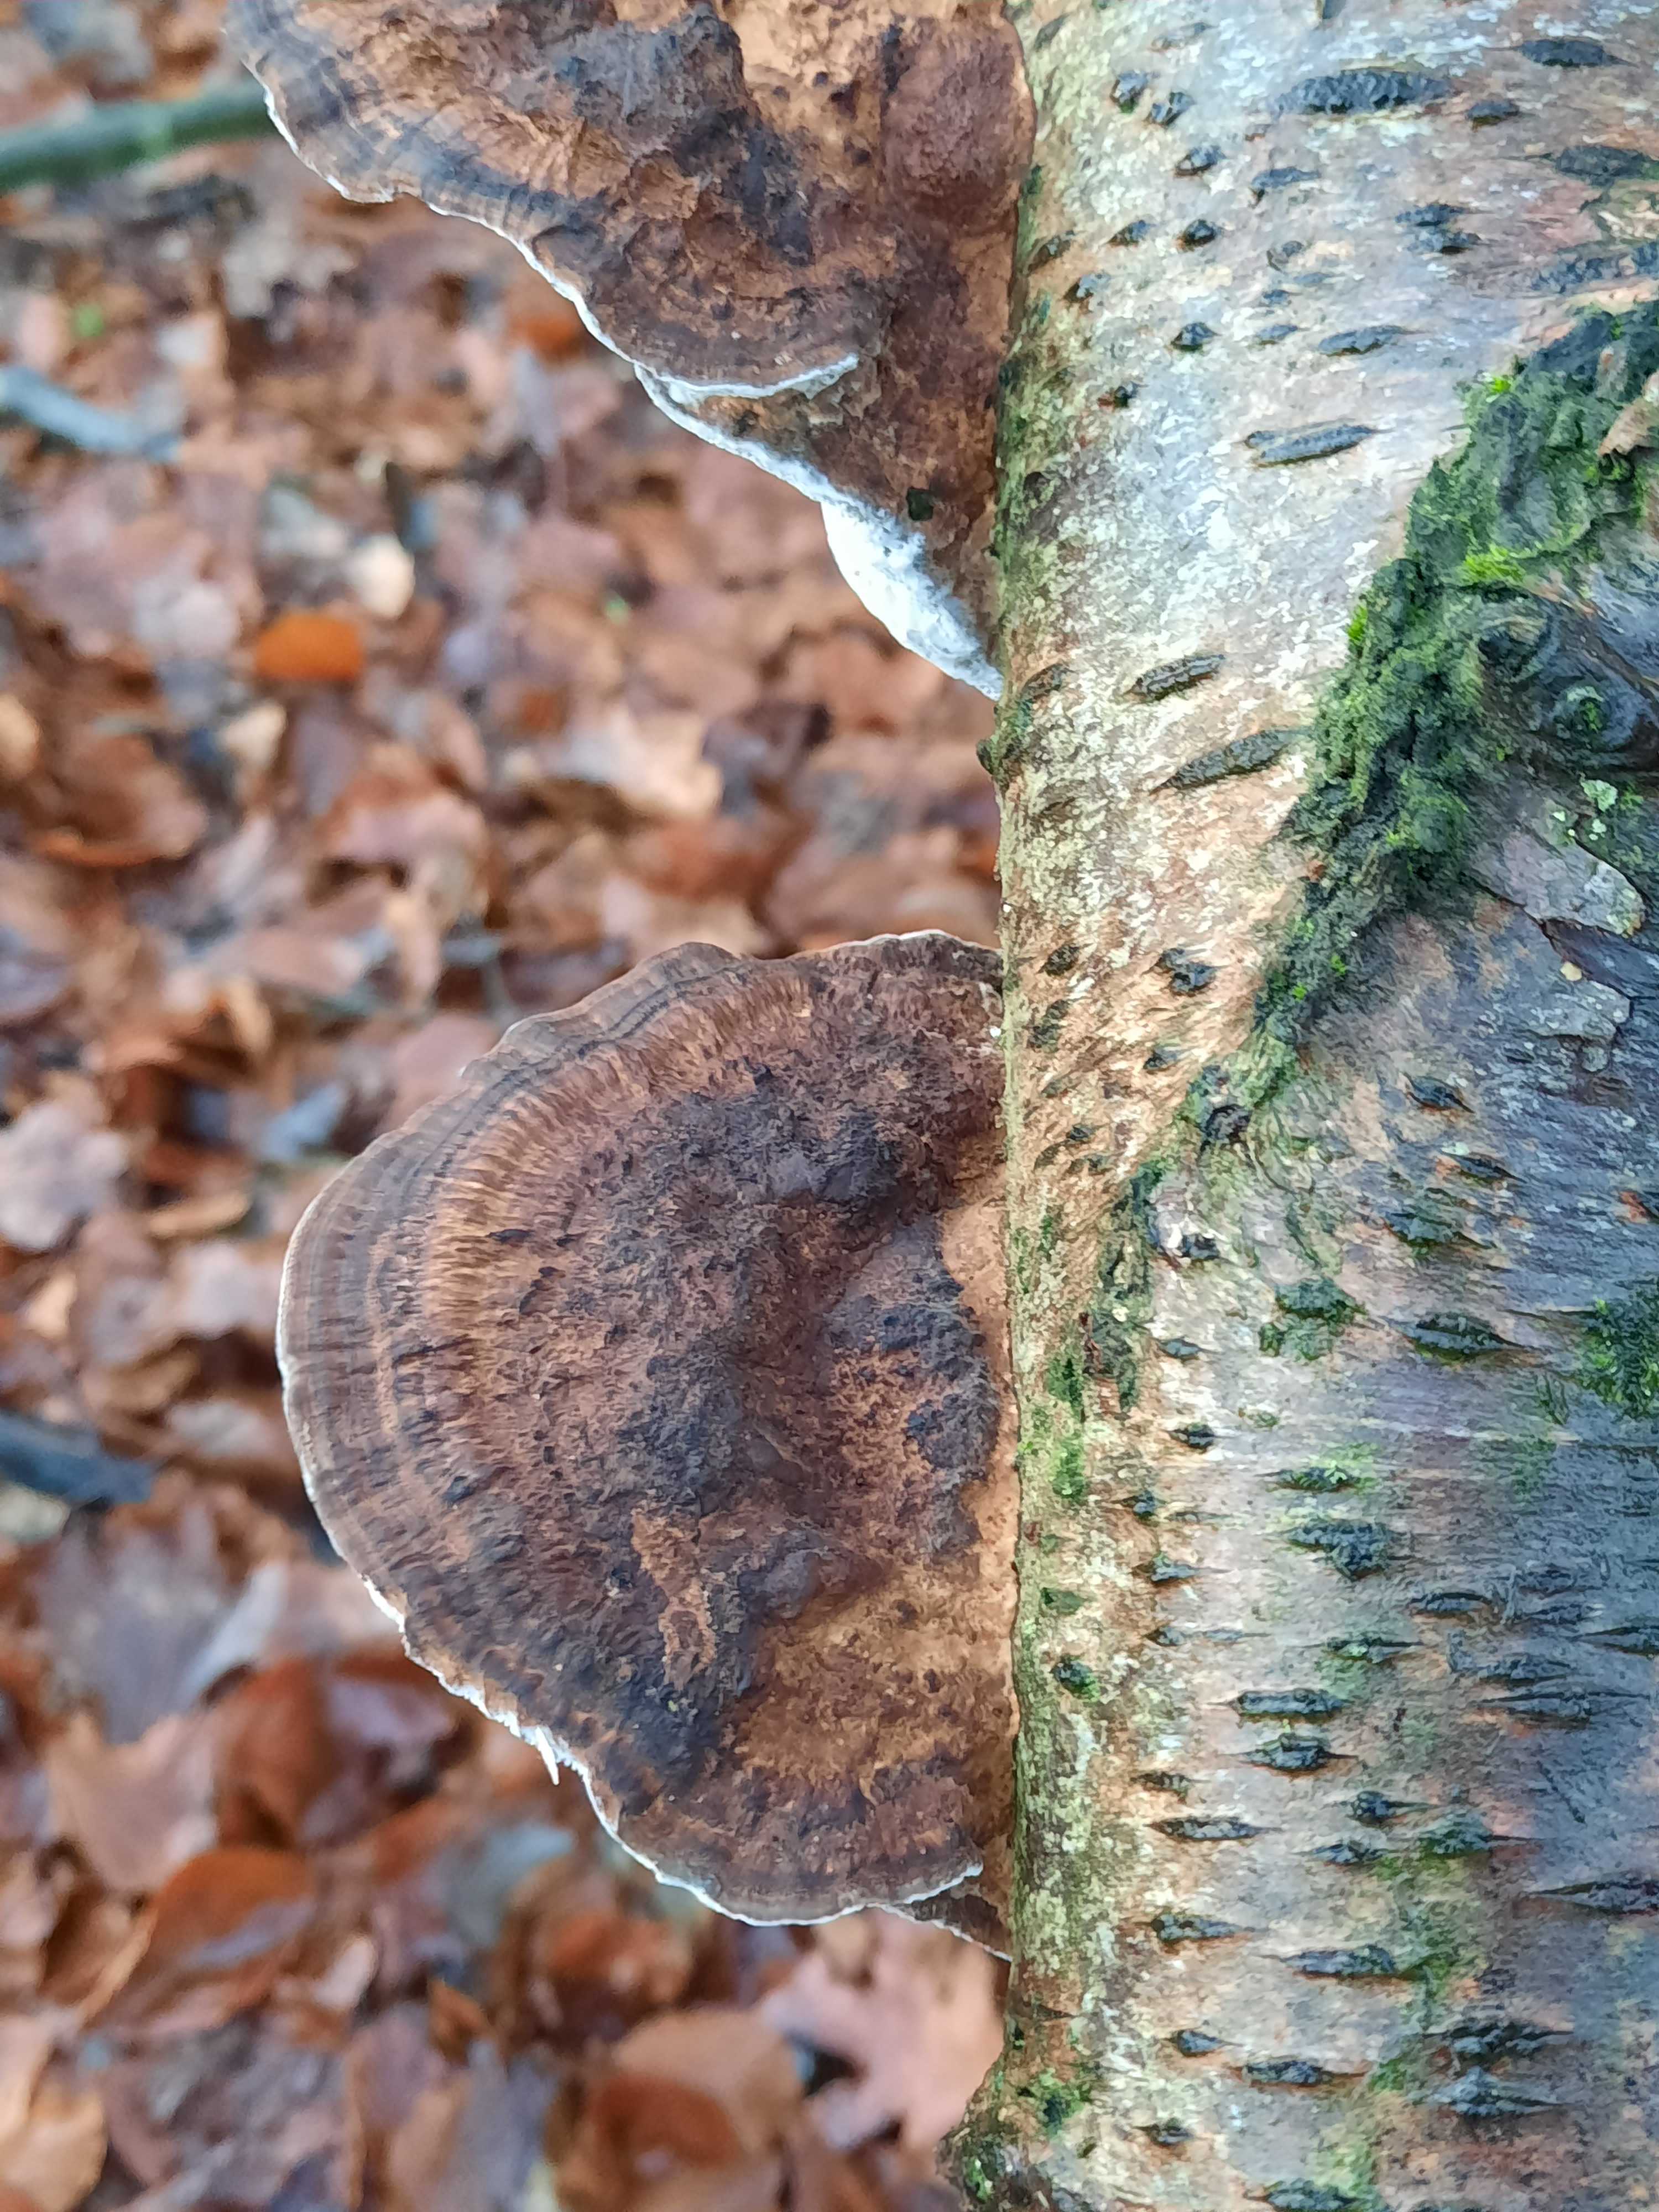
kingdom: Fungi
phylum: Basidiomycota
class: Agaricomycetes
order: Polyporales
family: Polyporaceae
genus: Daedaleopsis
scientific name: Daedaleopsis confragosa
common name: rødmende læderporesvamp
